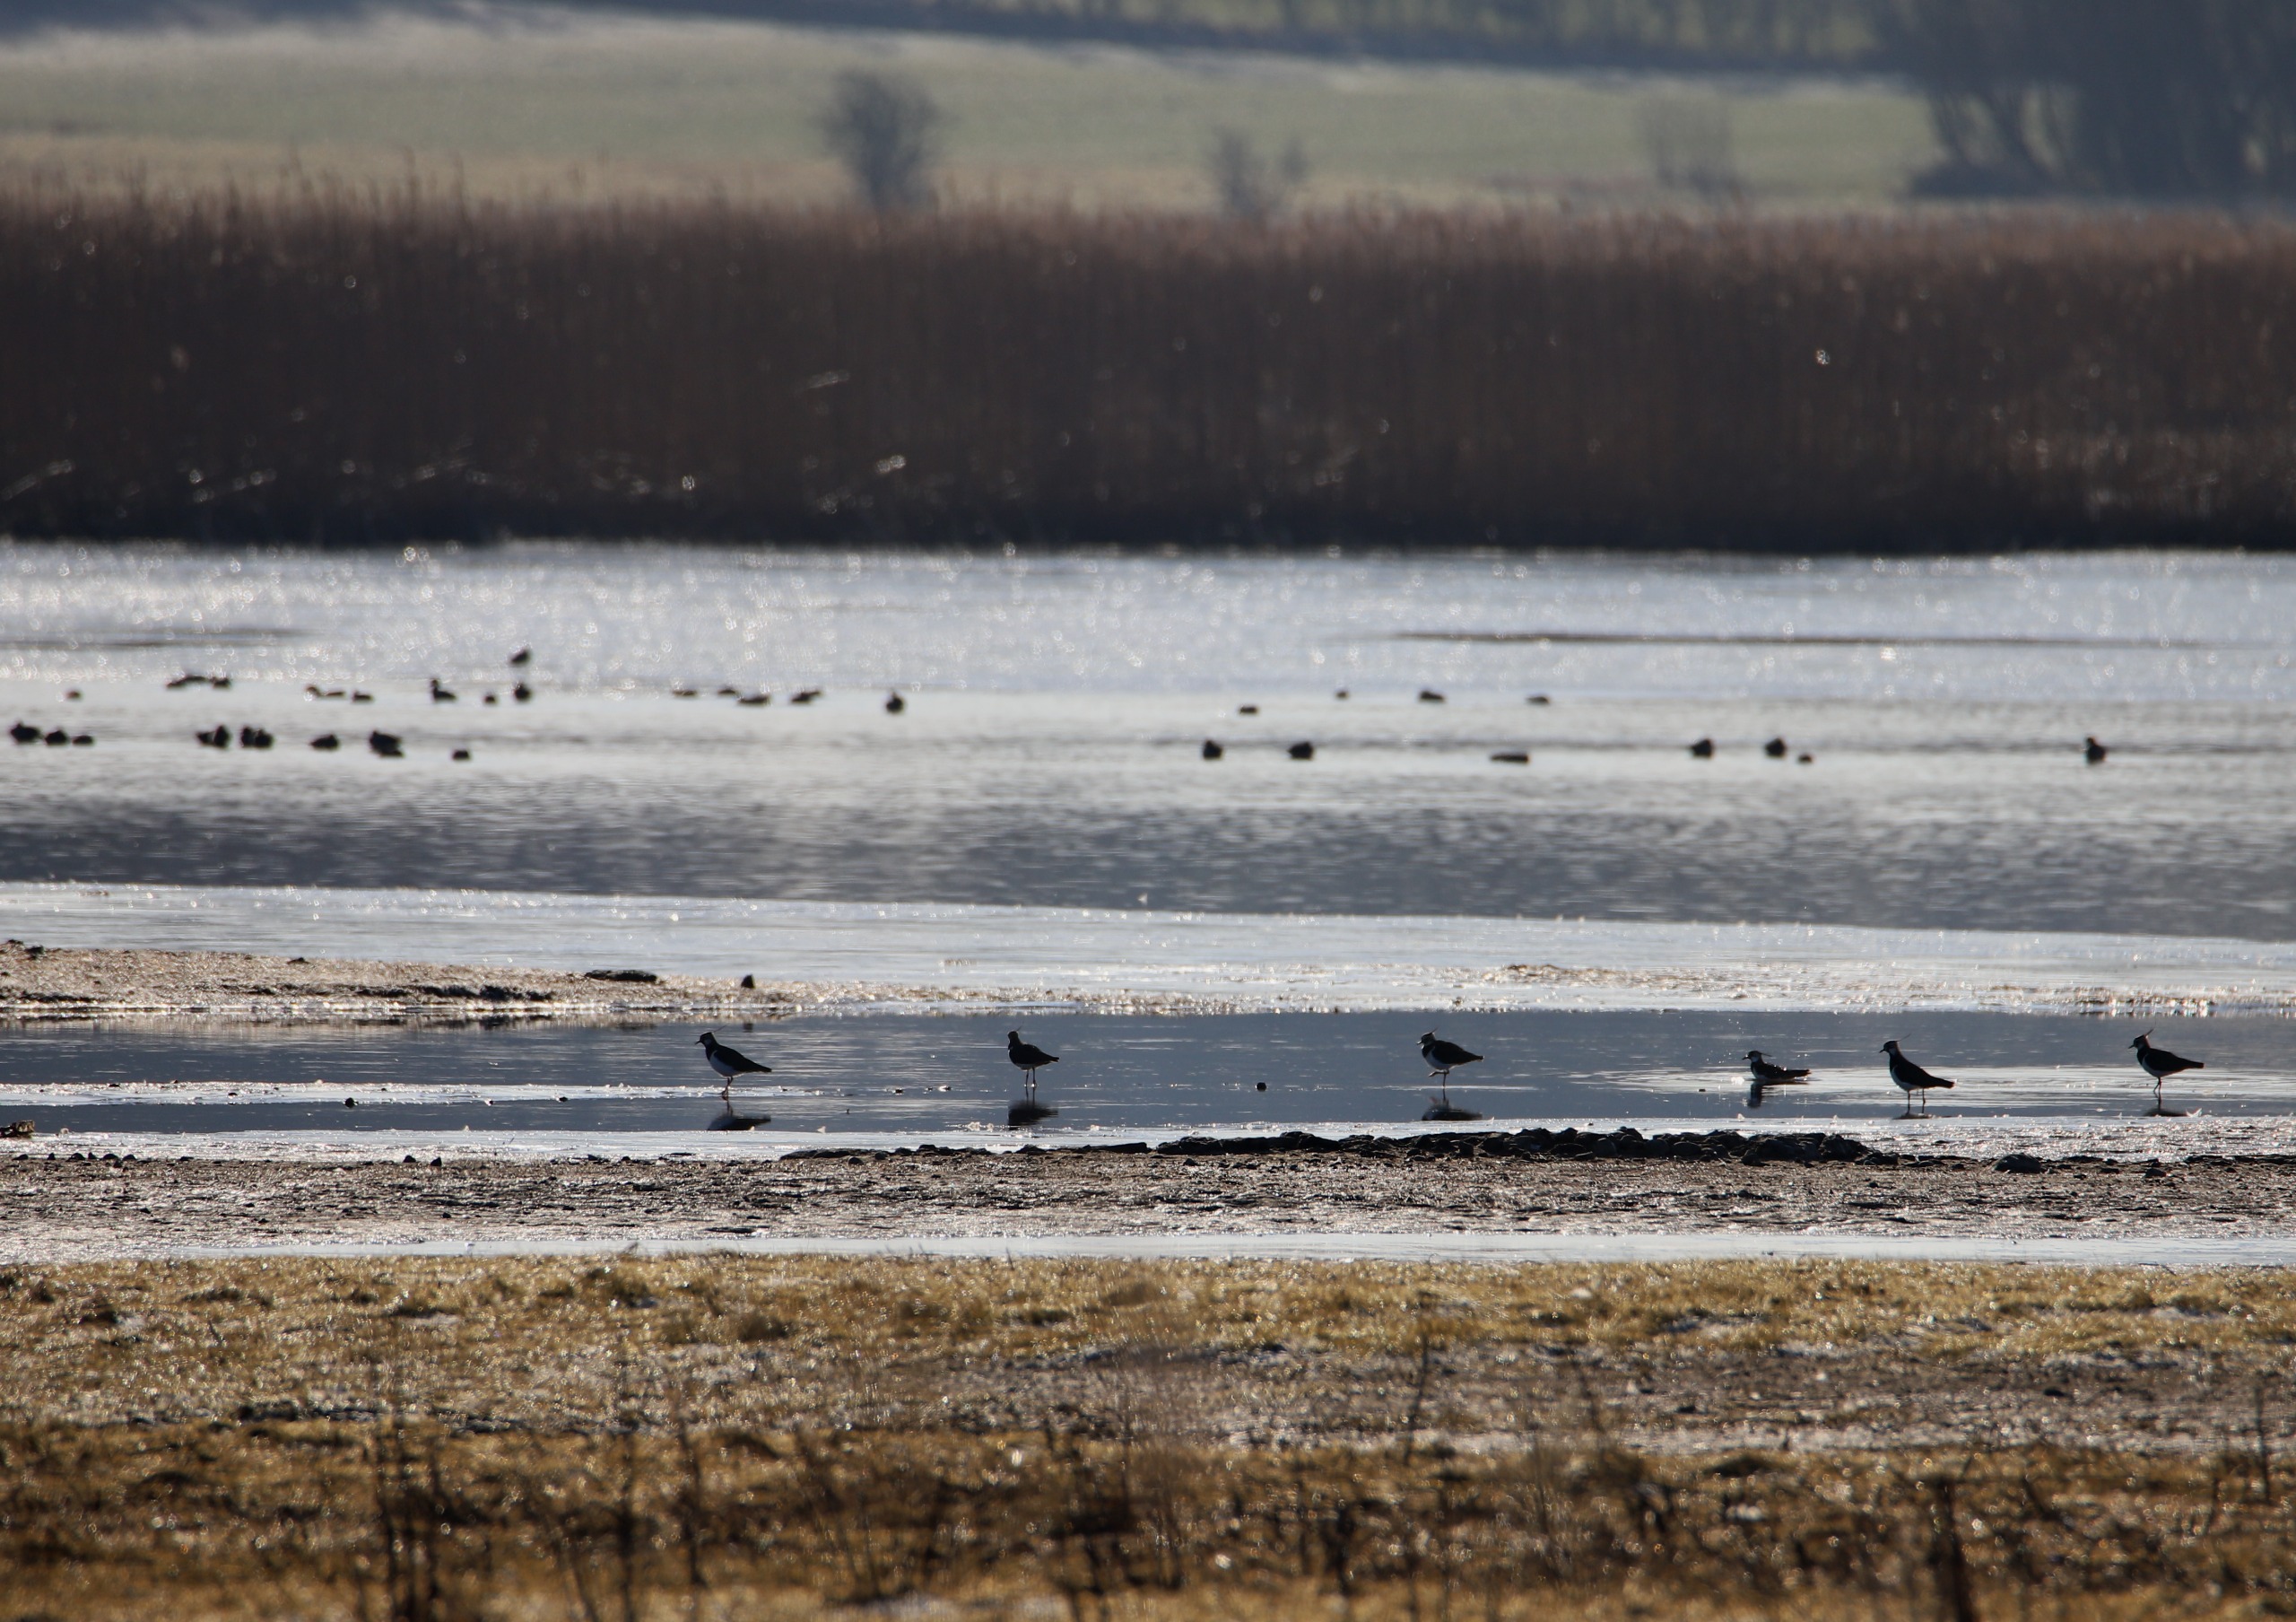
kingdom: Animalia
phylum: Chordata
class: Aves
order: Charadriiformes
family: Charadriidae
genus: Vanellus
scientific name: Vanellus vanellus
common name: Vibe
